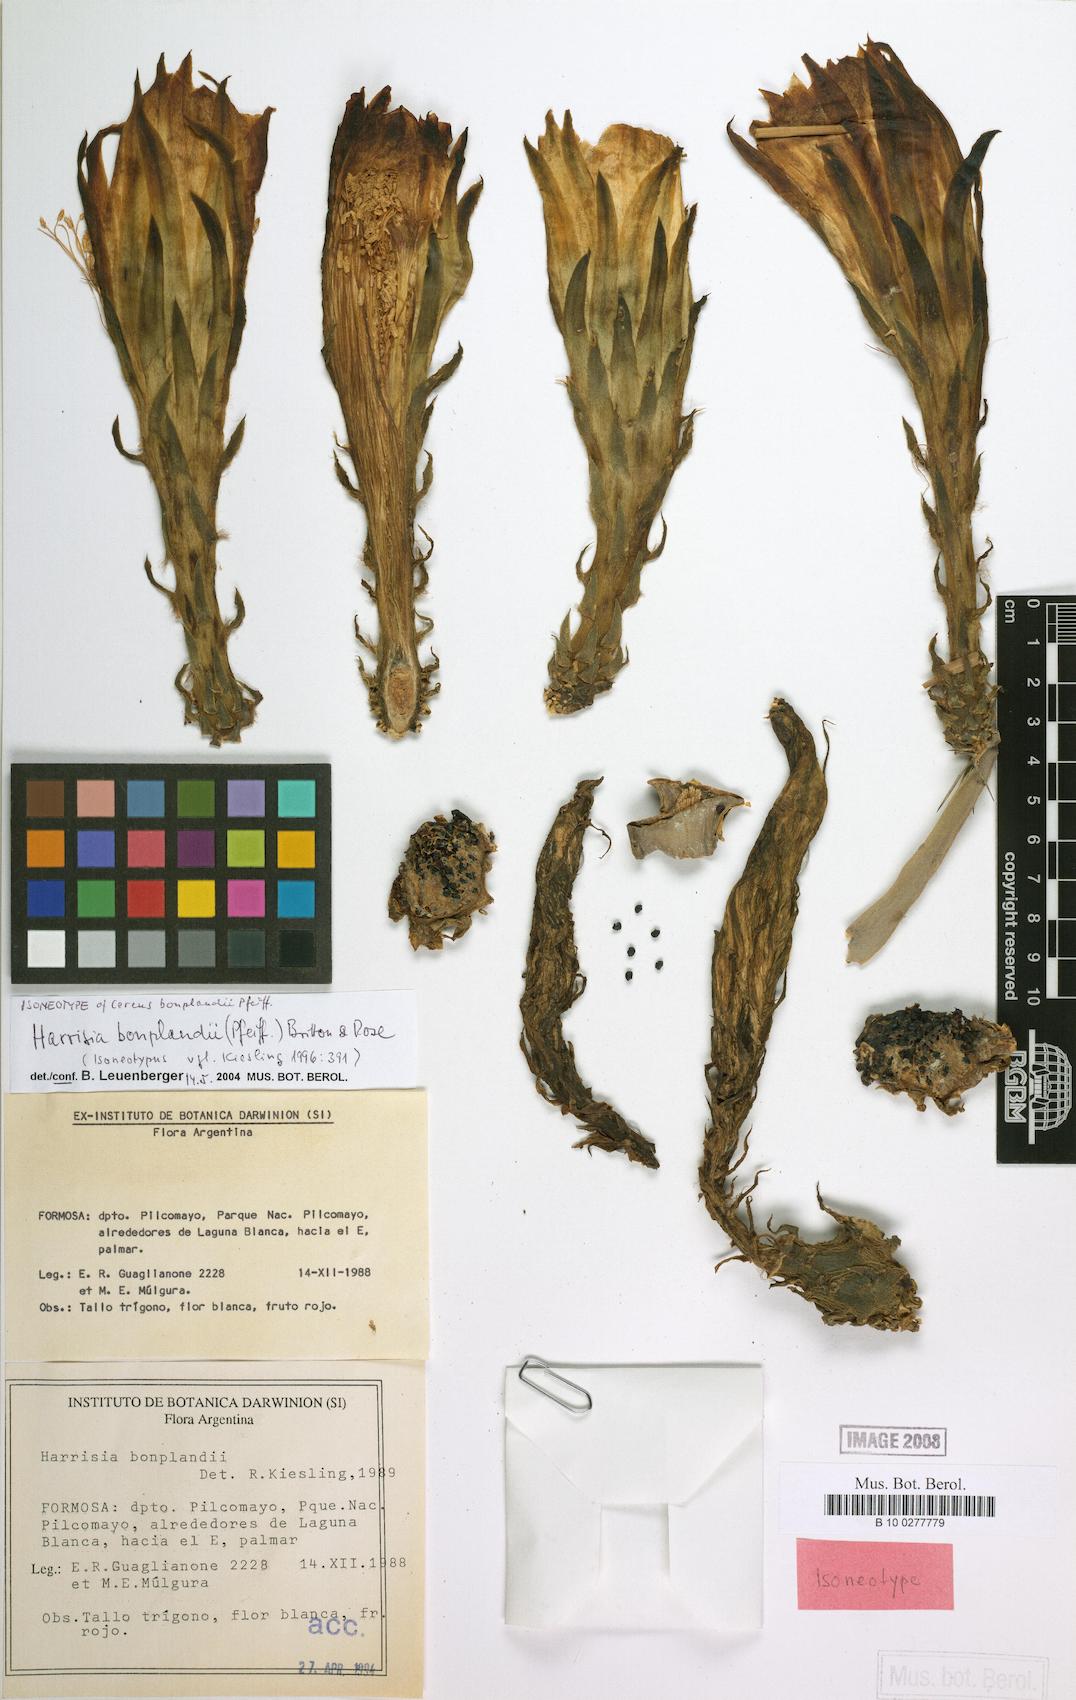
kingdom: Plantae
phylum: Tracheophyta
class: Magnoliopsida
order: Caryophyllales
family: Cactaceae
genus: Harrisia
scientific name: Harrisia bonplandii
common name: Queen of the night cactus
